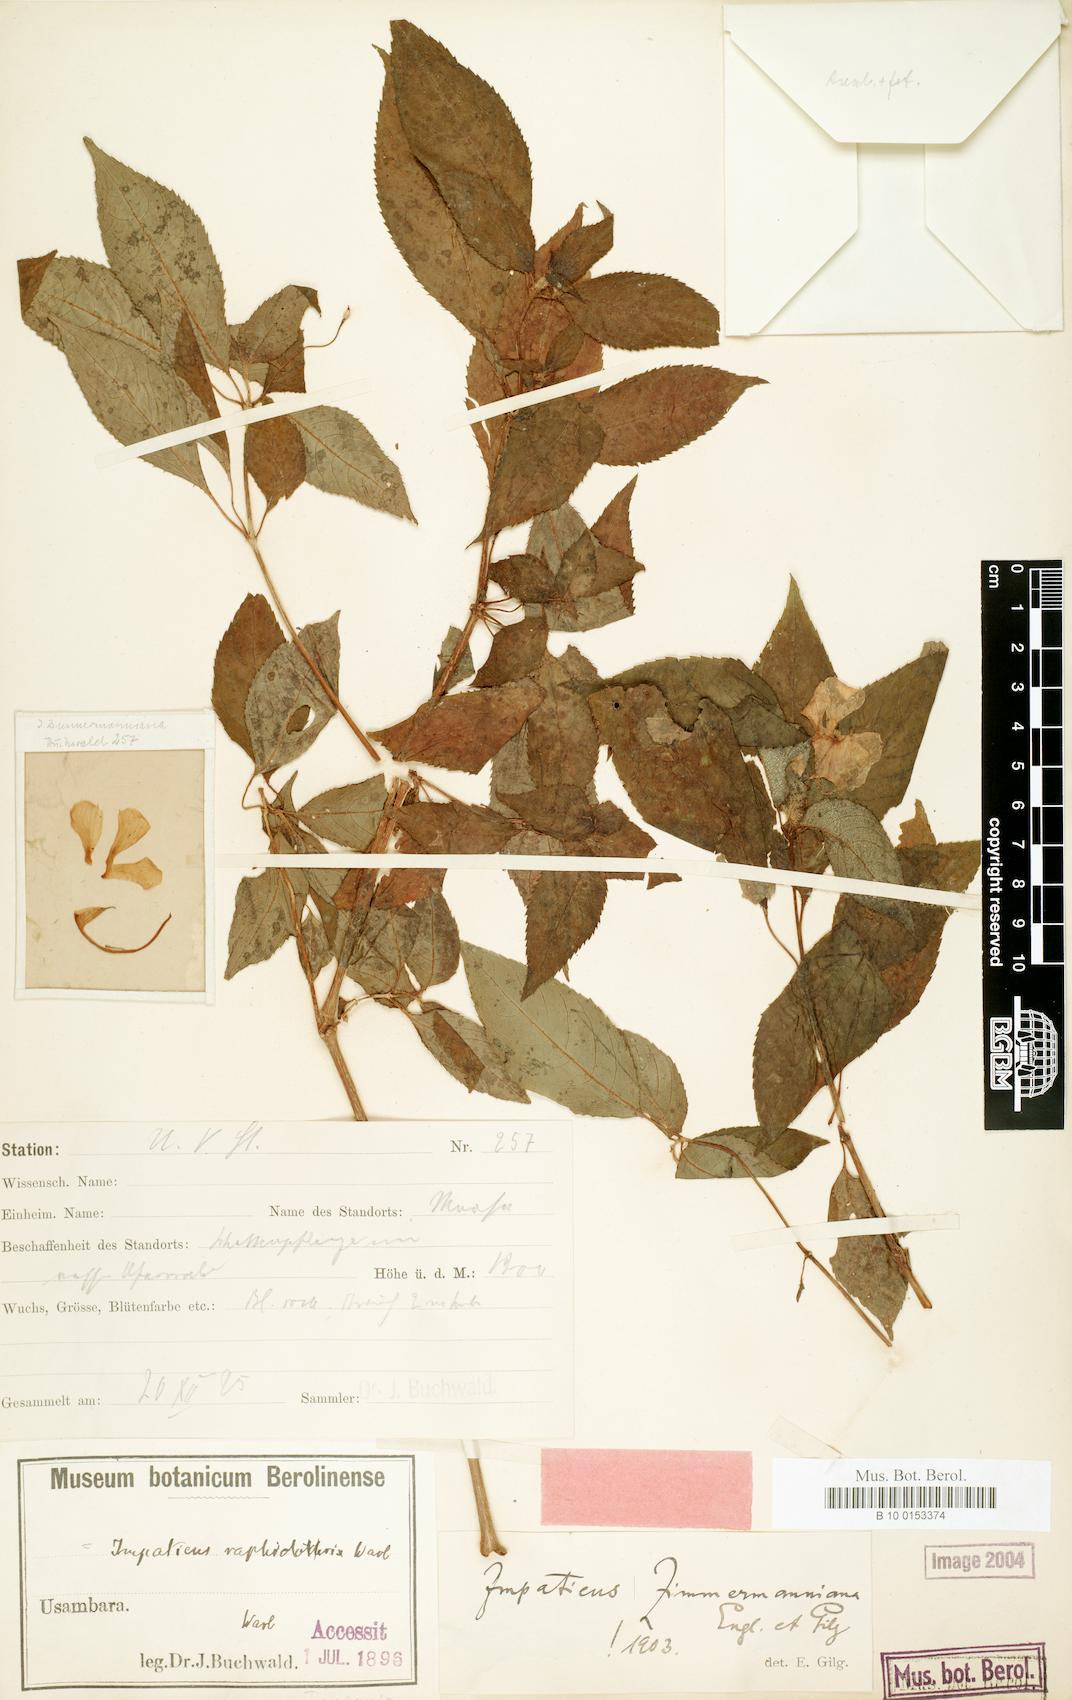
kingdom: Plantae
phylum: Tracheophyta
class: Magnoliopsida
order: Ericales
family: Balsaminaceae
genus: Impatiens
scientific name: Impatiens raphidothrix
